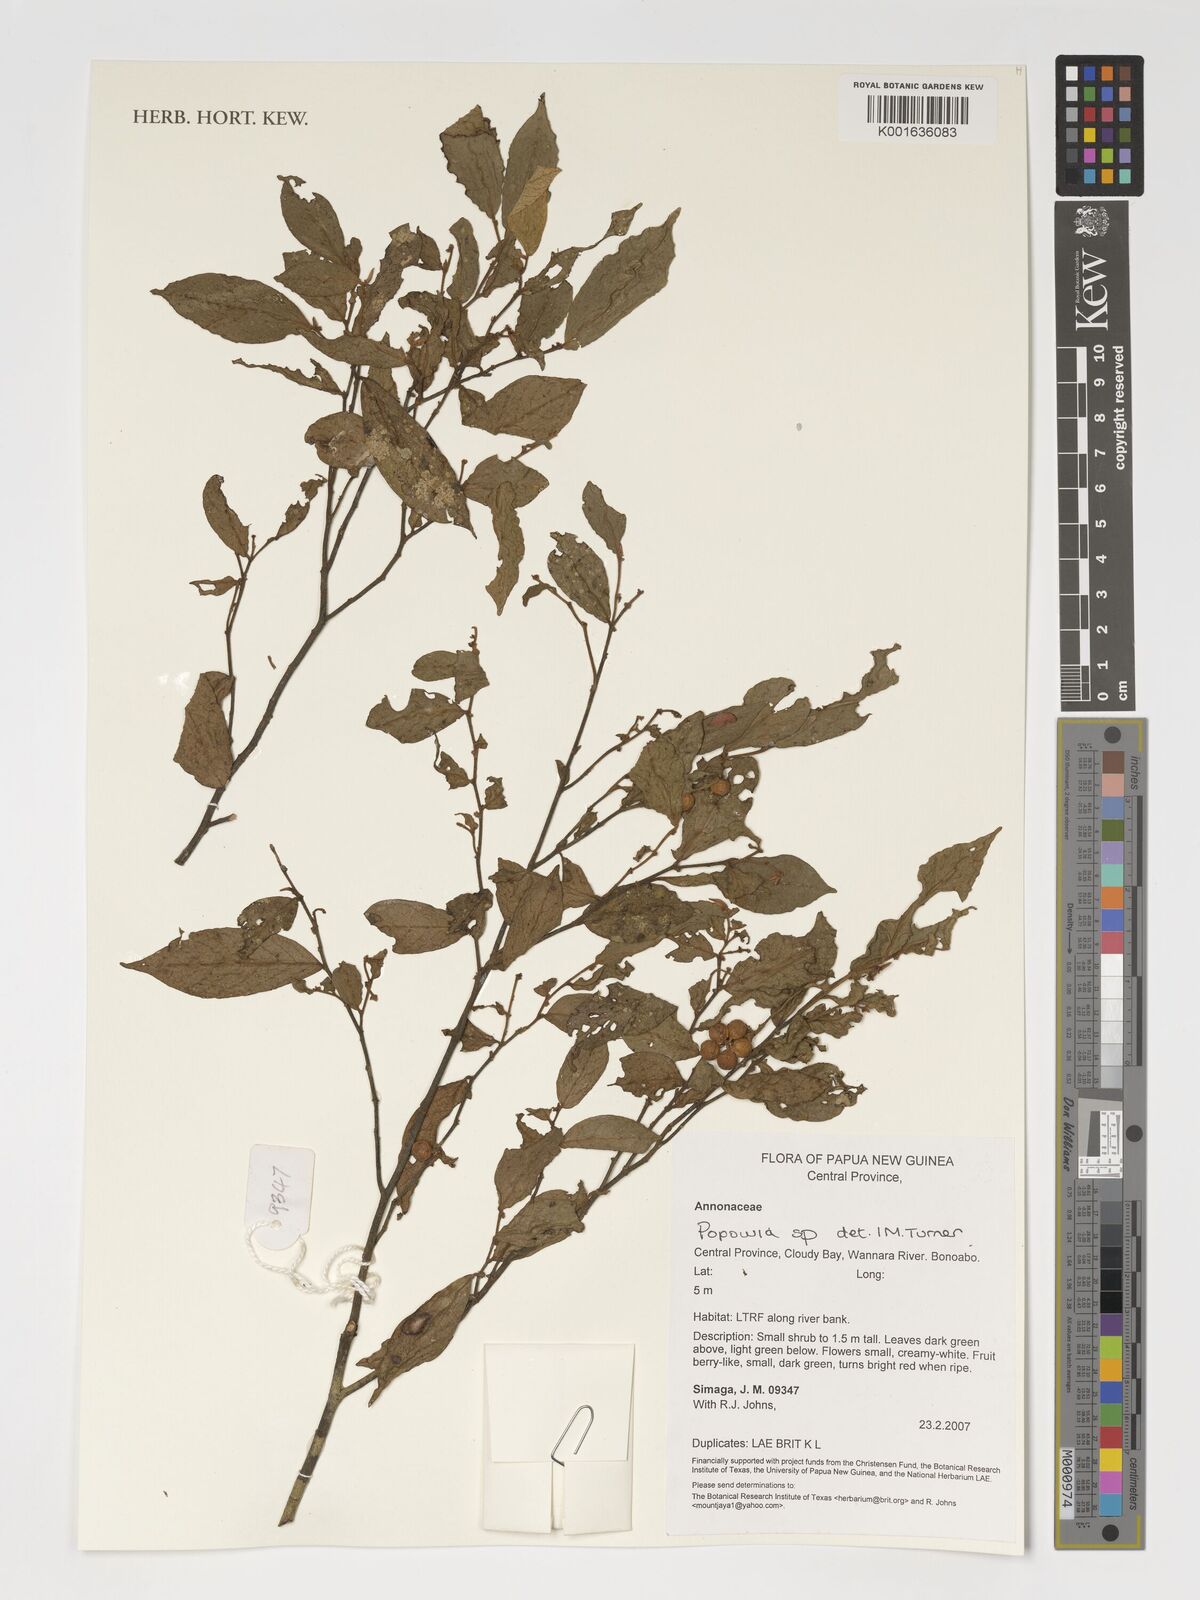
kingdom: Plantae
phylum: Tracheophyta
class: Magnoliopsida
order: Magnoliales
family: Annonaceae
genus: Popowia
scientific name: Popowia
